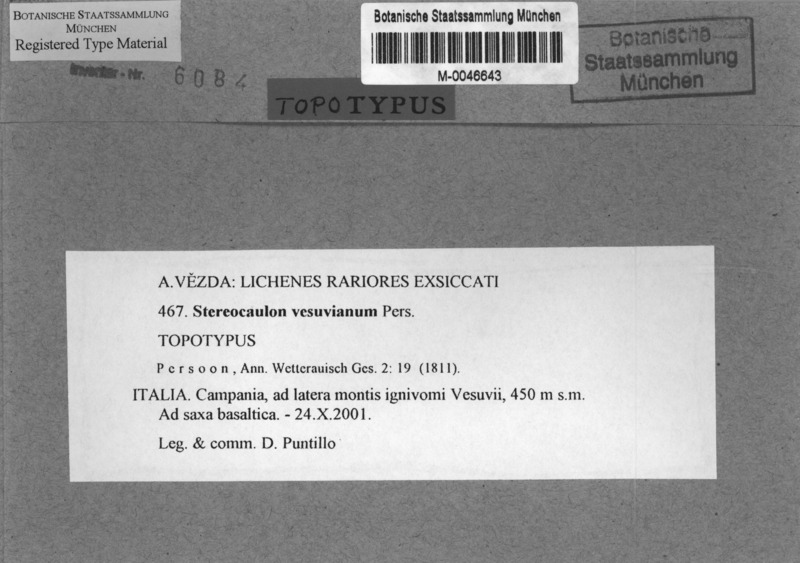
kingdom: Fungi
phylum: Ascomycota
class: Lecanoromycetes
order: Lecanorales
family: Stereocaulaceae
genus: Stereocaulon
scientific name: Stereocaulon vesuvianum
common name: Variegated foam lichen
